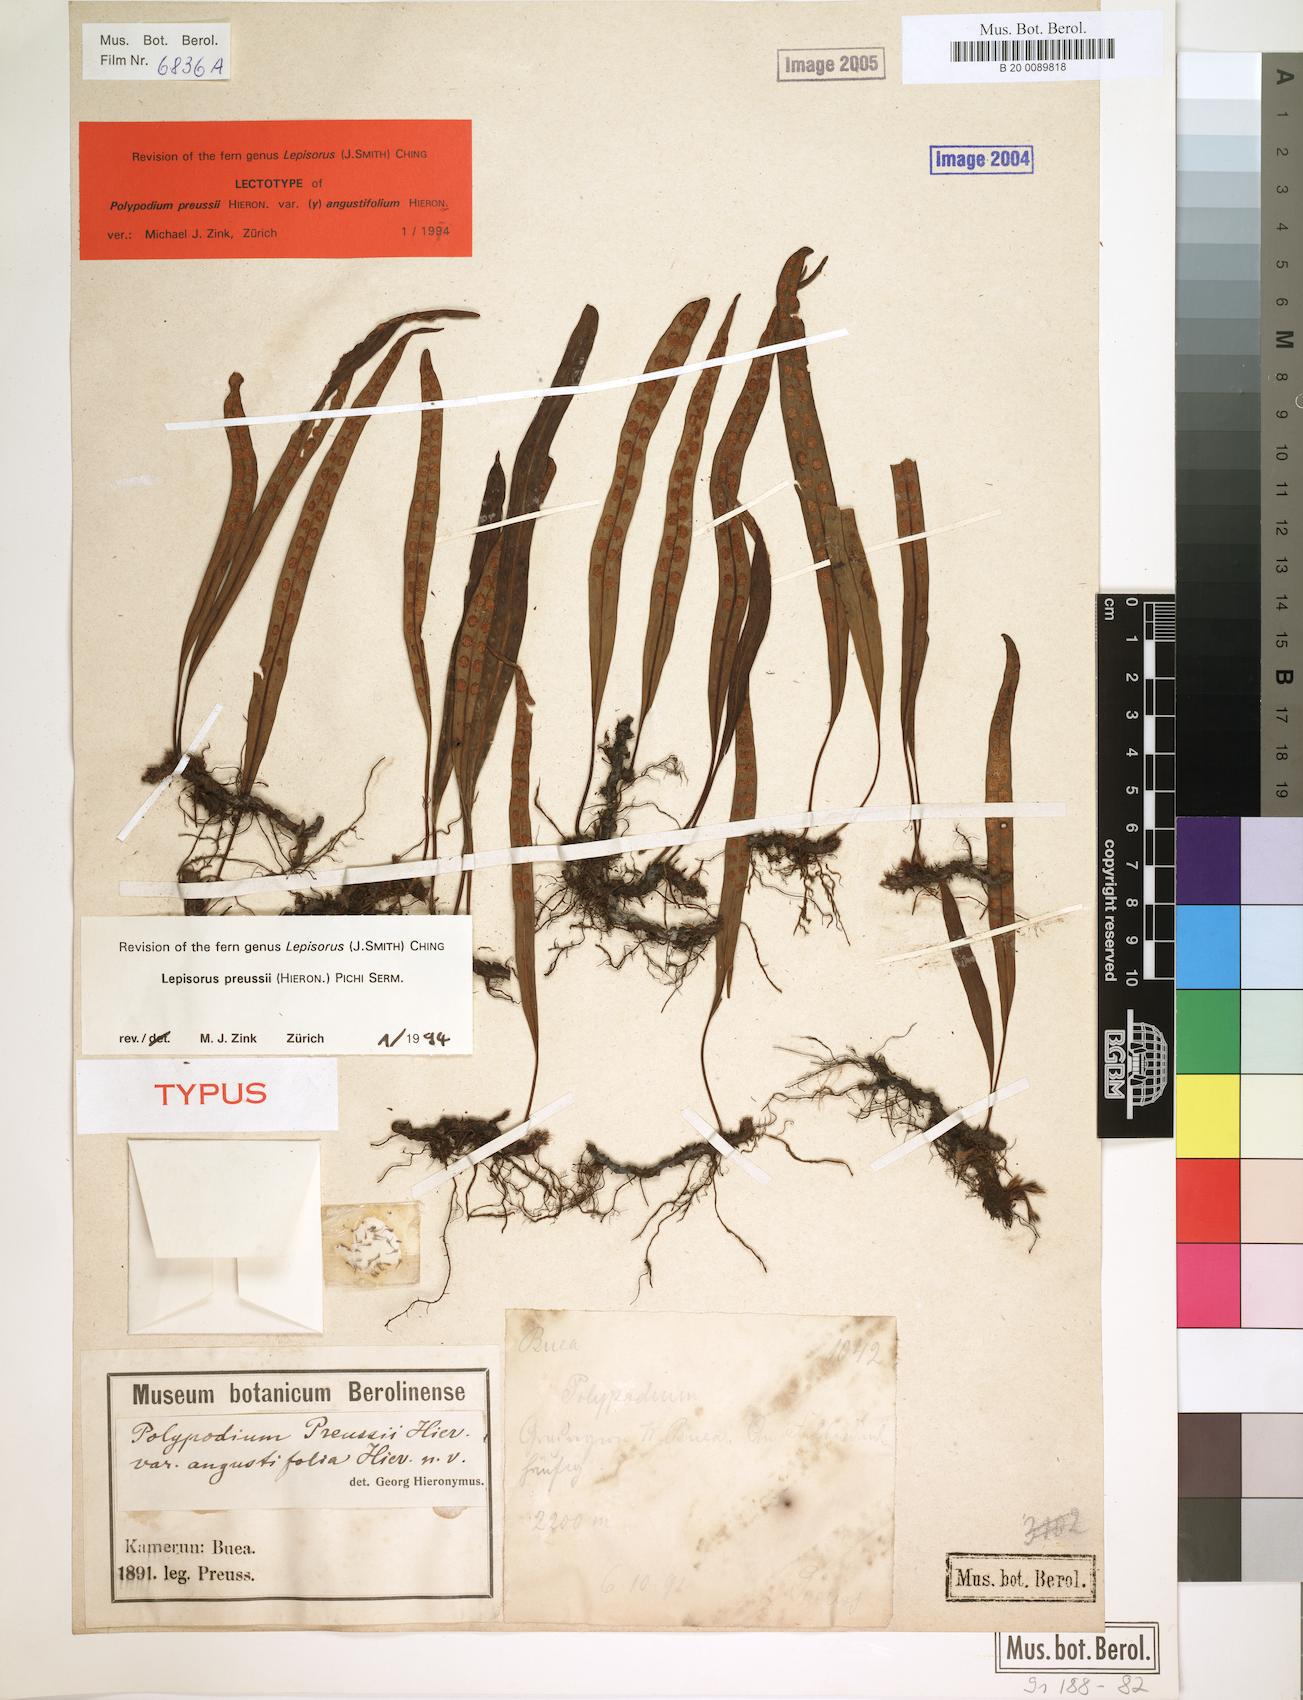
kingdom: Plantae
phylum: Tracheophyta
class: Polypodiopsida
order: Polypodiales
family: Polypodiaceae
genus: Lepisorus
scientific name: Lepisorus excavatus
